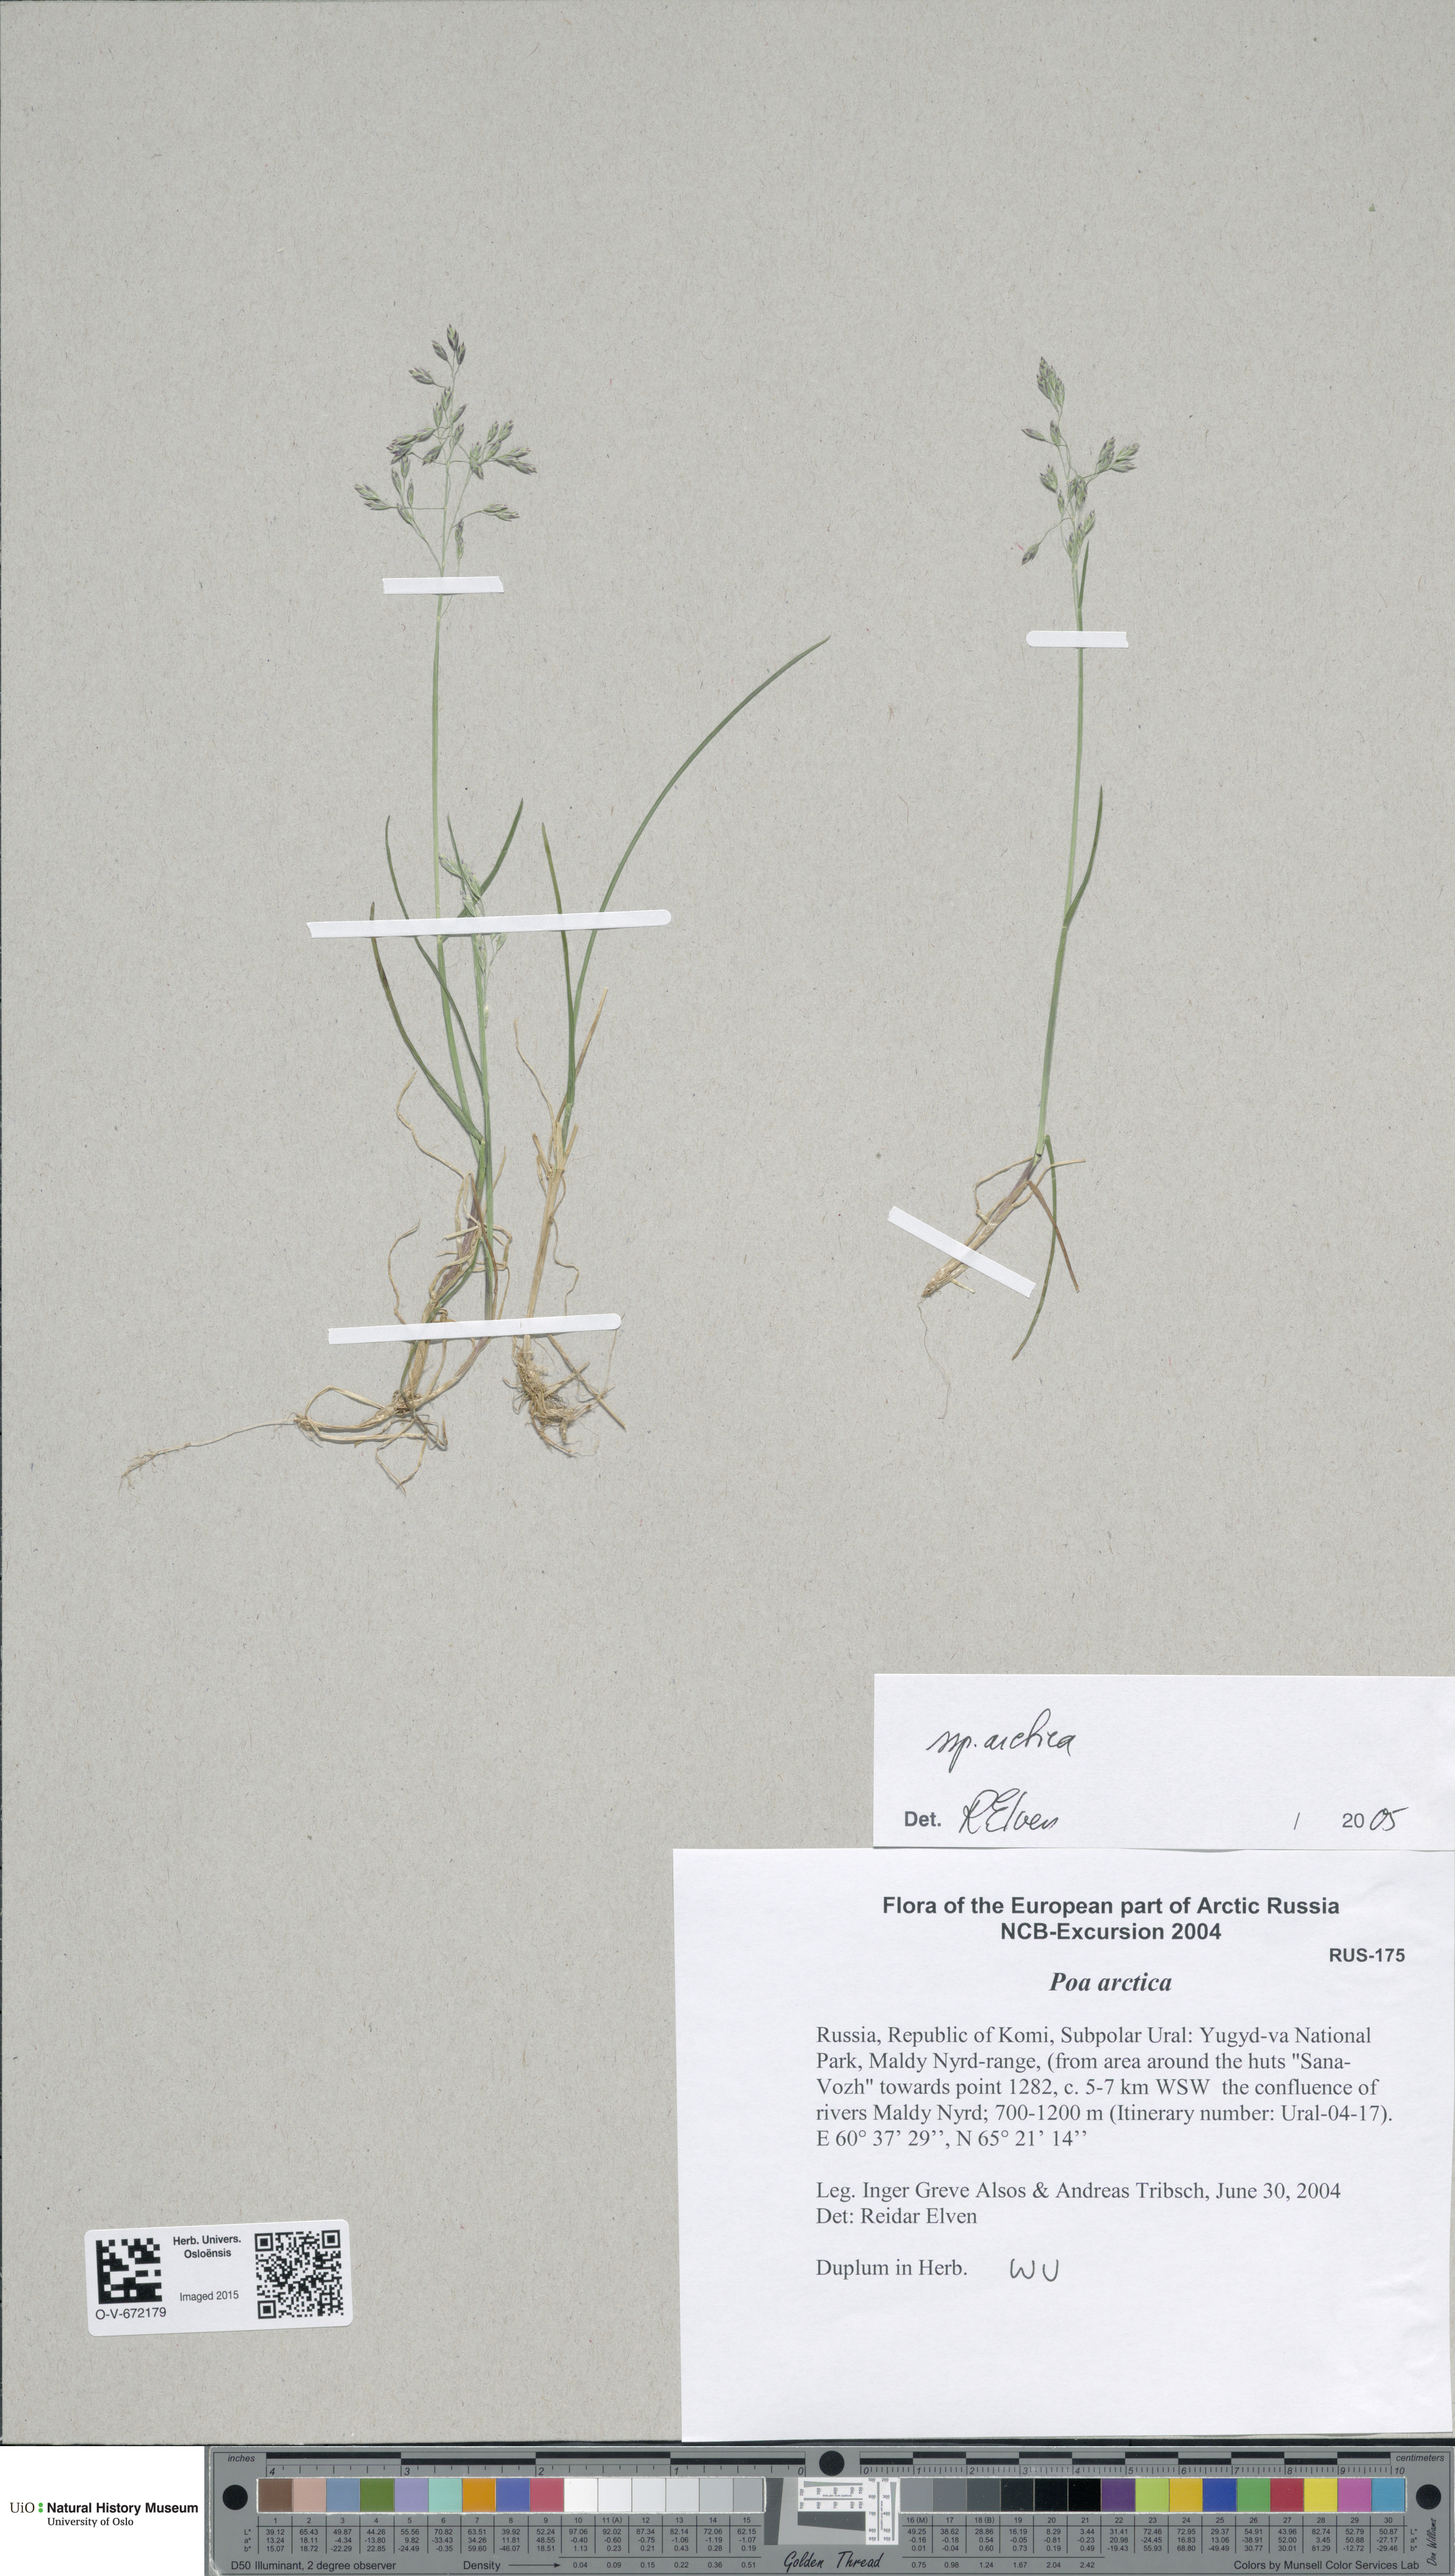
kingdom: Plantae
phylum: Tracheophyta
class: Liliopsida
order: Poales
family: Poaceae
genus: Poa
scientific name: Poa arctica
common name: Arctic bluegrass
